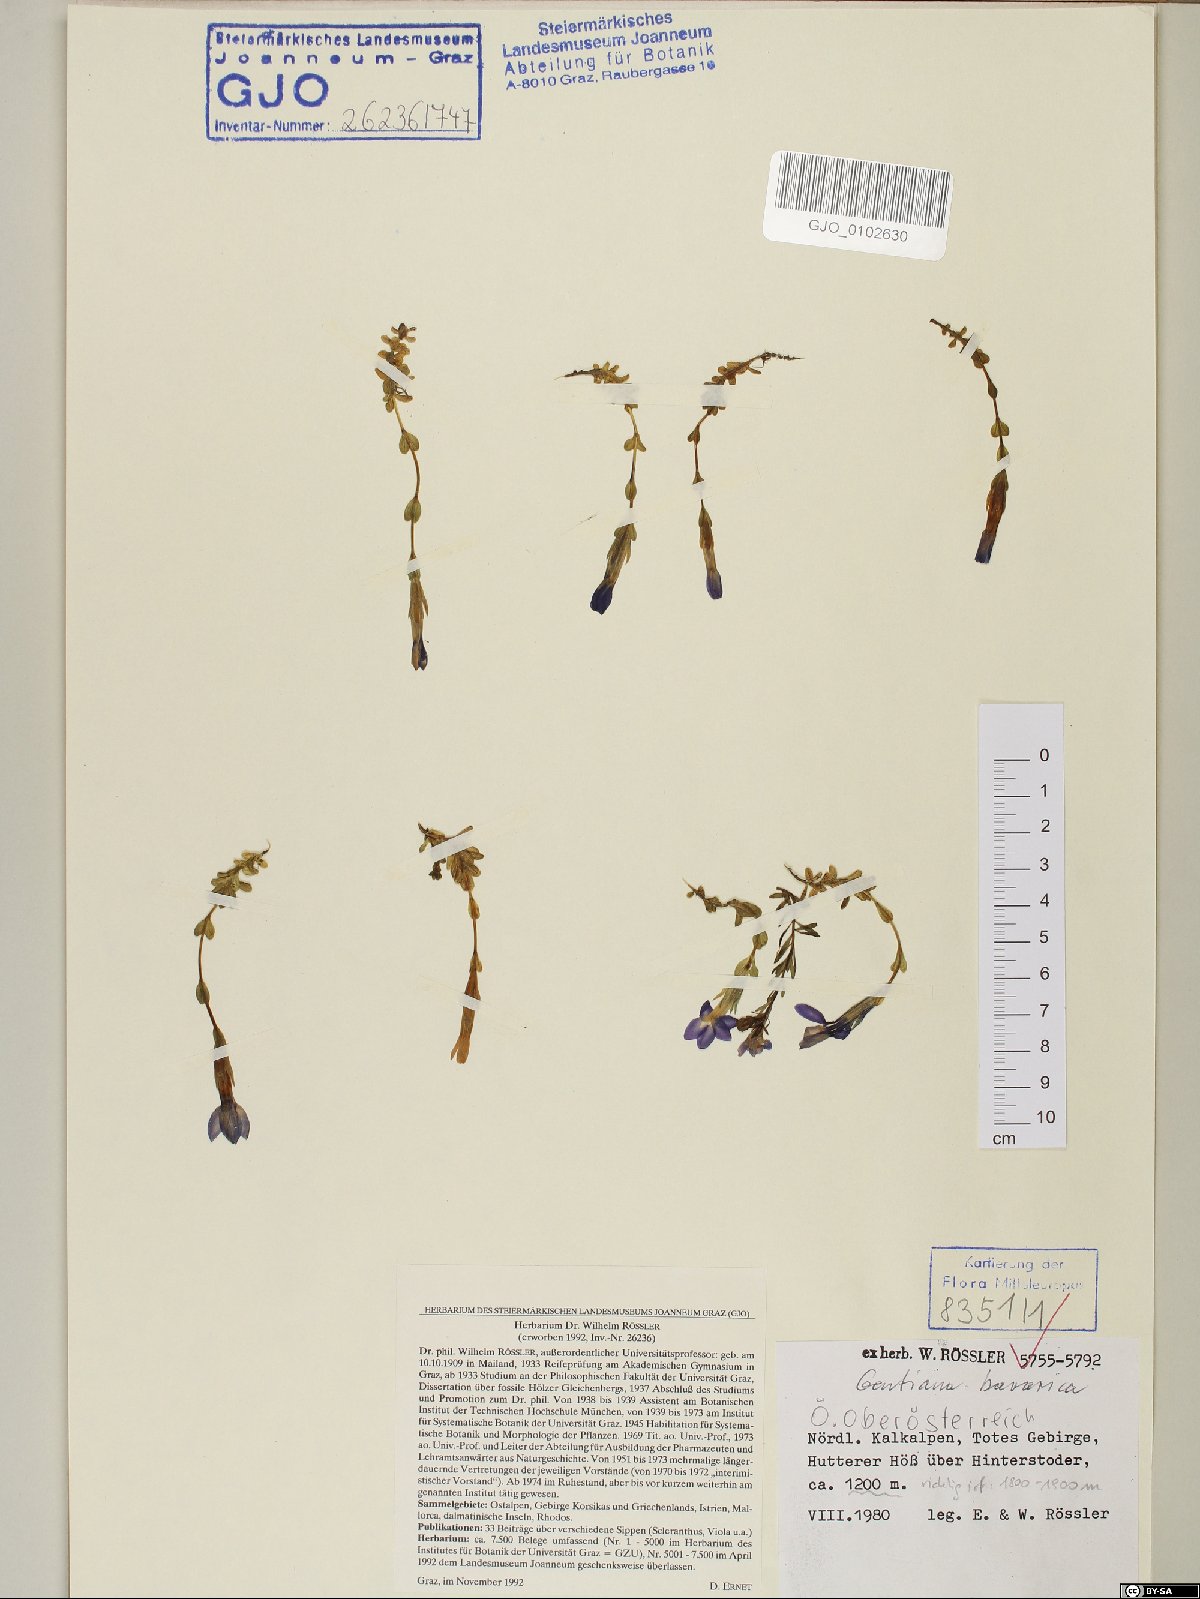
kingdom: Plantae
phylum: Tracheophyta
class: Magnoliopsida
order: Gentianales
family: Gentianaceae
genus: Gentiana
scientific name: Gentiana bavarica
